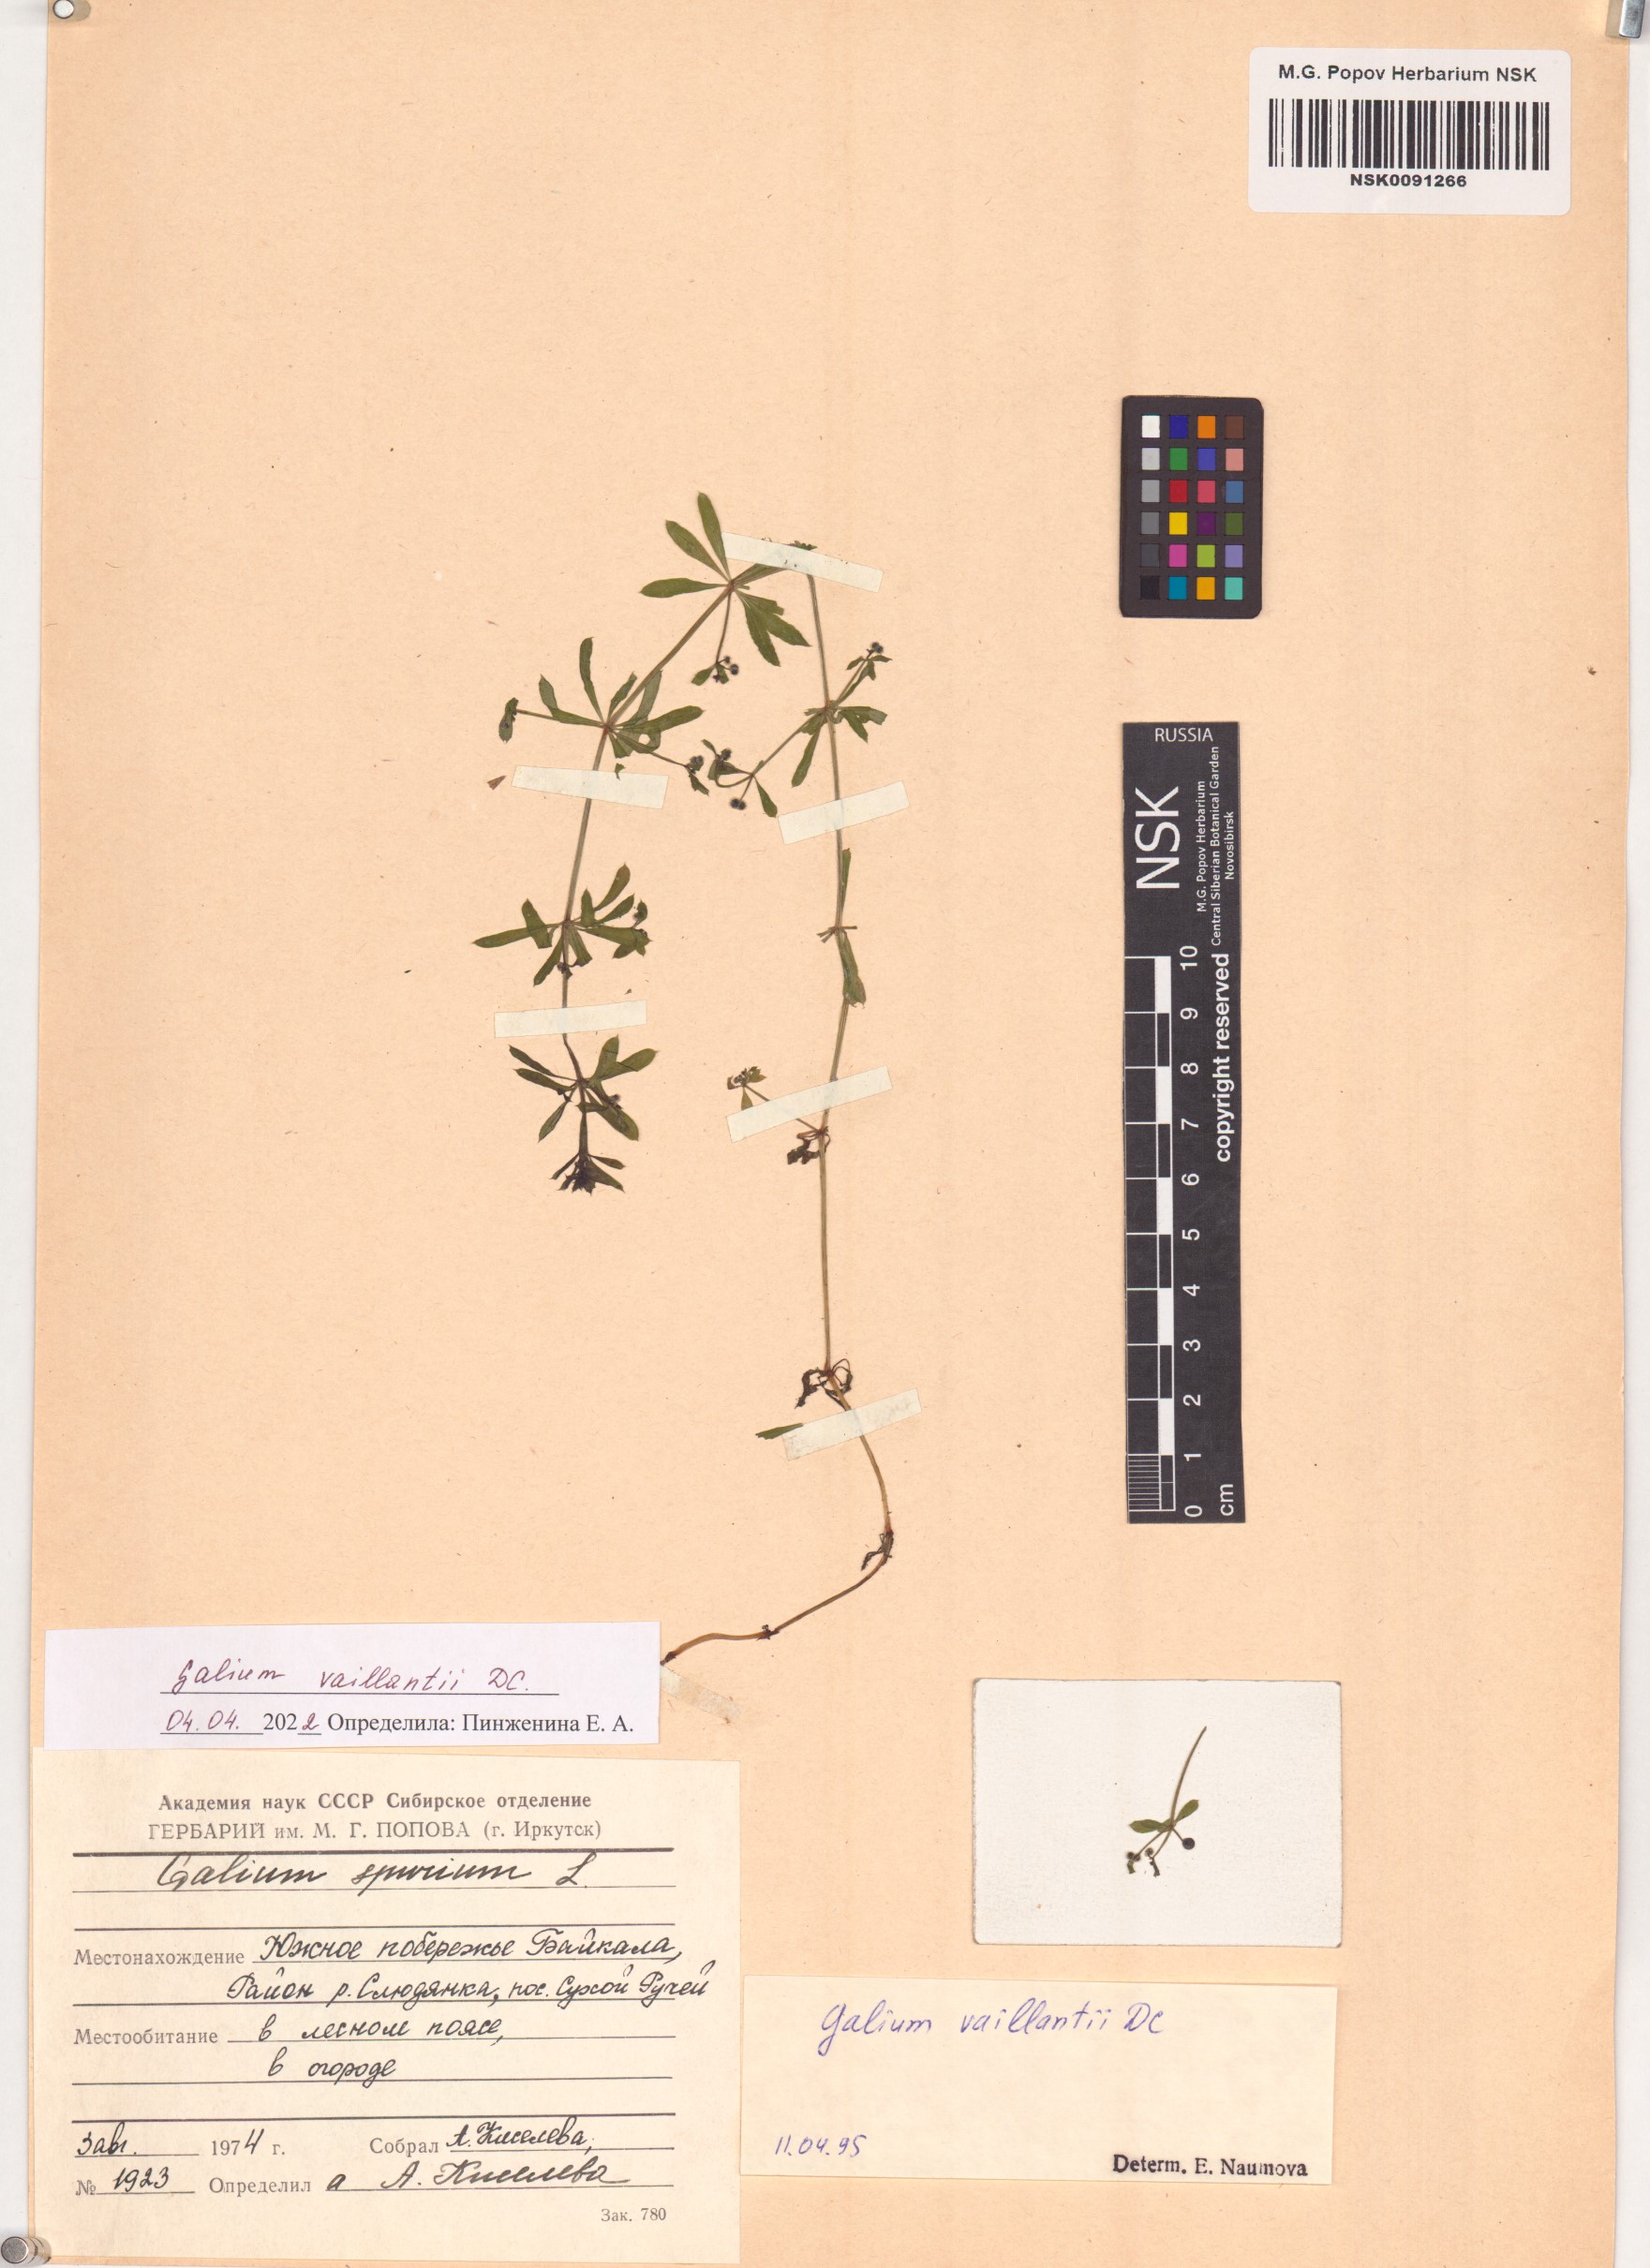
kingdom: Plantae
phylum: Tracheophyta
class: Magnoliopsida
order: Gentianales
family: Rubiaceae
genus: Galium
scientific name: Galium spurium
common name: False cleavers
